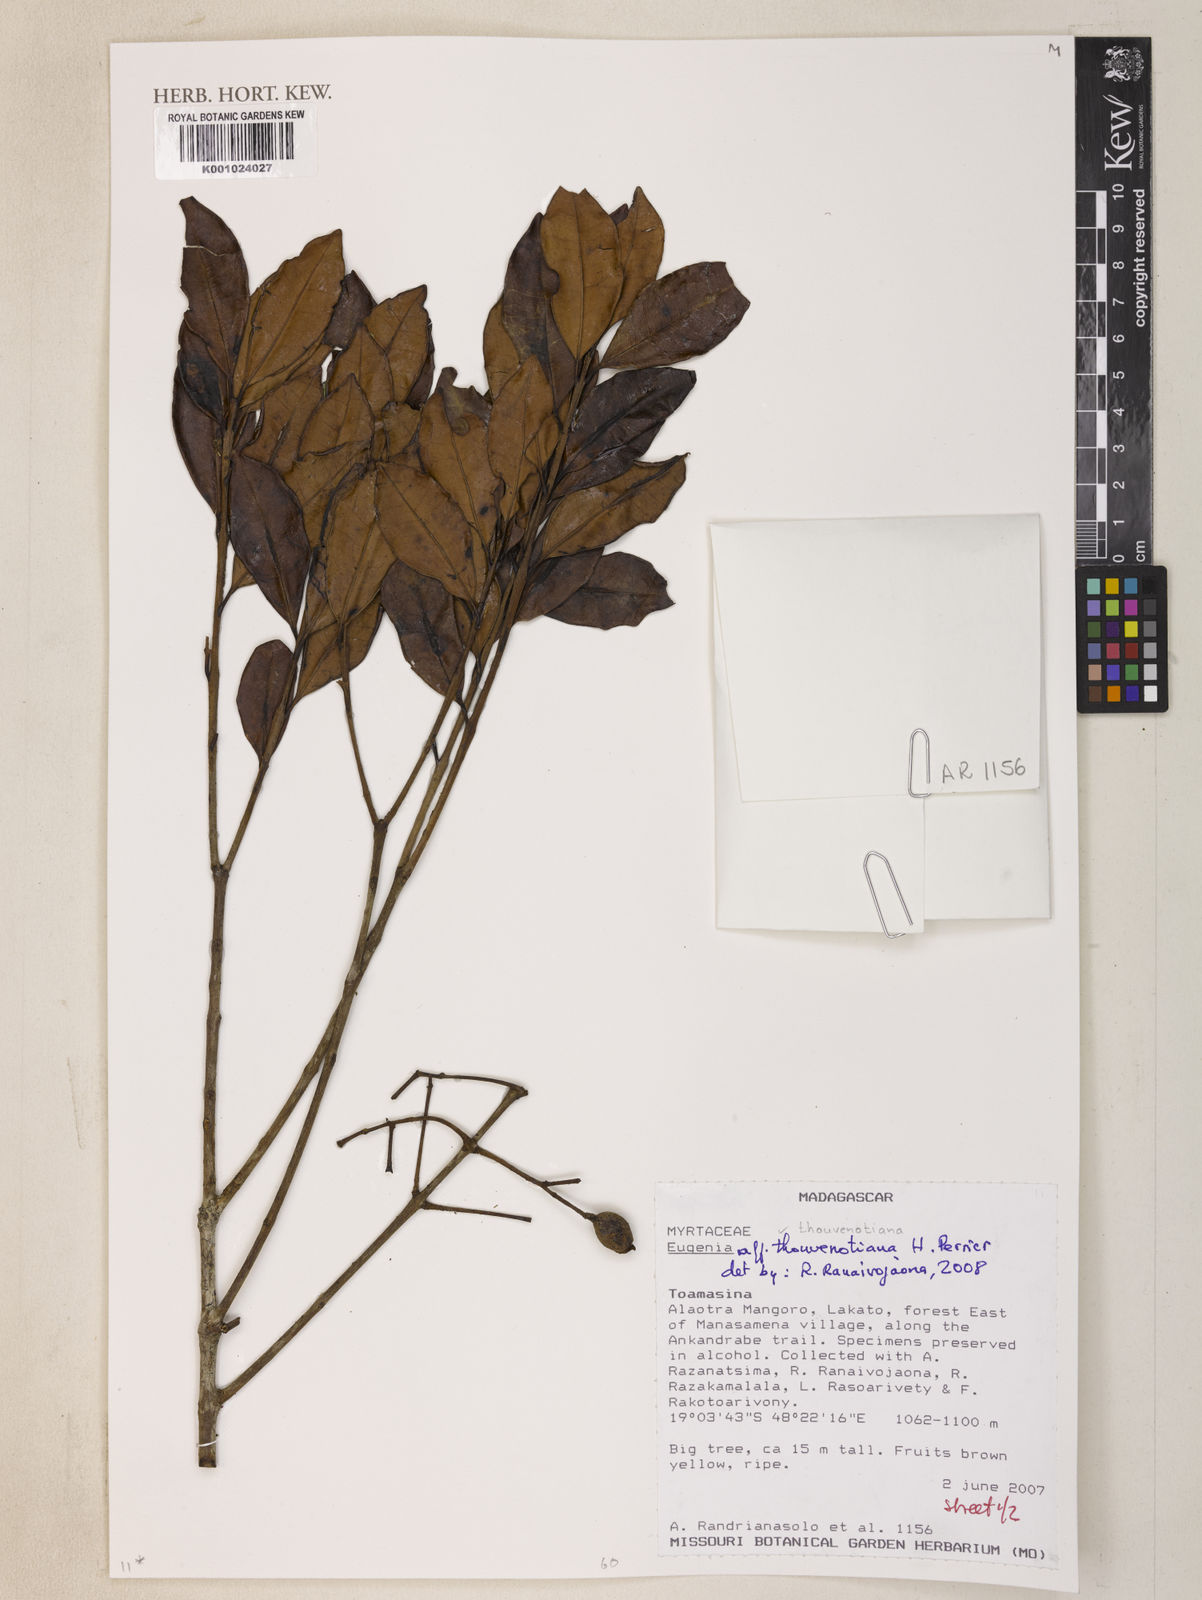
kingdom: Plantae
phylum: Tracheophyta
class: Magnoliopsida
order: Myrtales
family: Myrtaceae
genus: Eugenia
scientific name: Eugenia thouvenotiana
